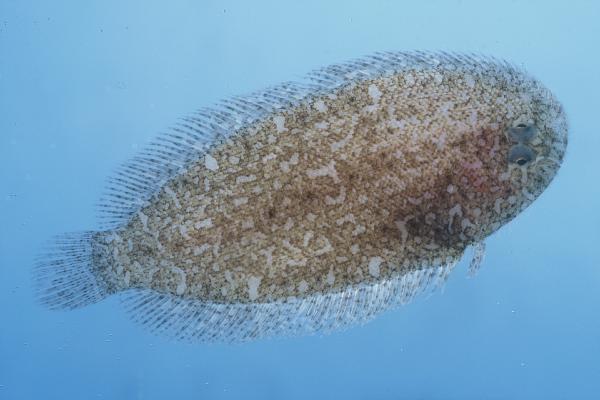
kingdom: Animalia
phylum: Chordata
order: Pleuronectiformes
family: Soleidae
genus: Aseraggodes
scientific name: Aseraggodes heemstrai
